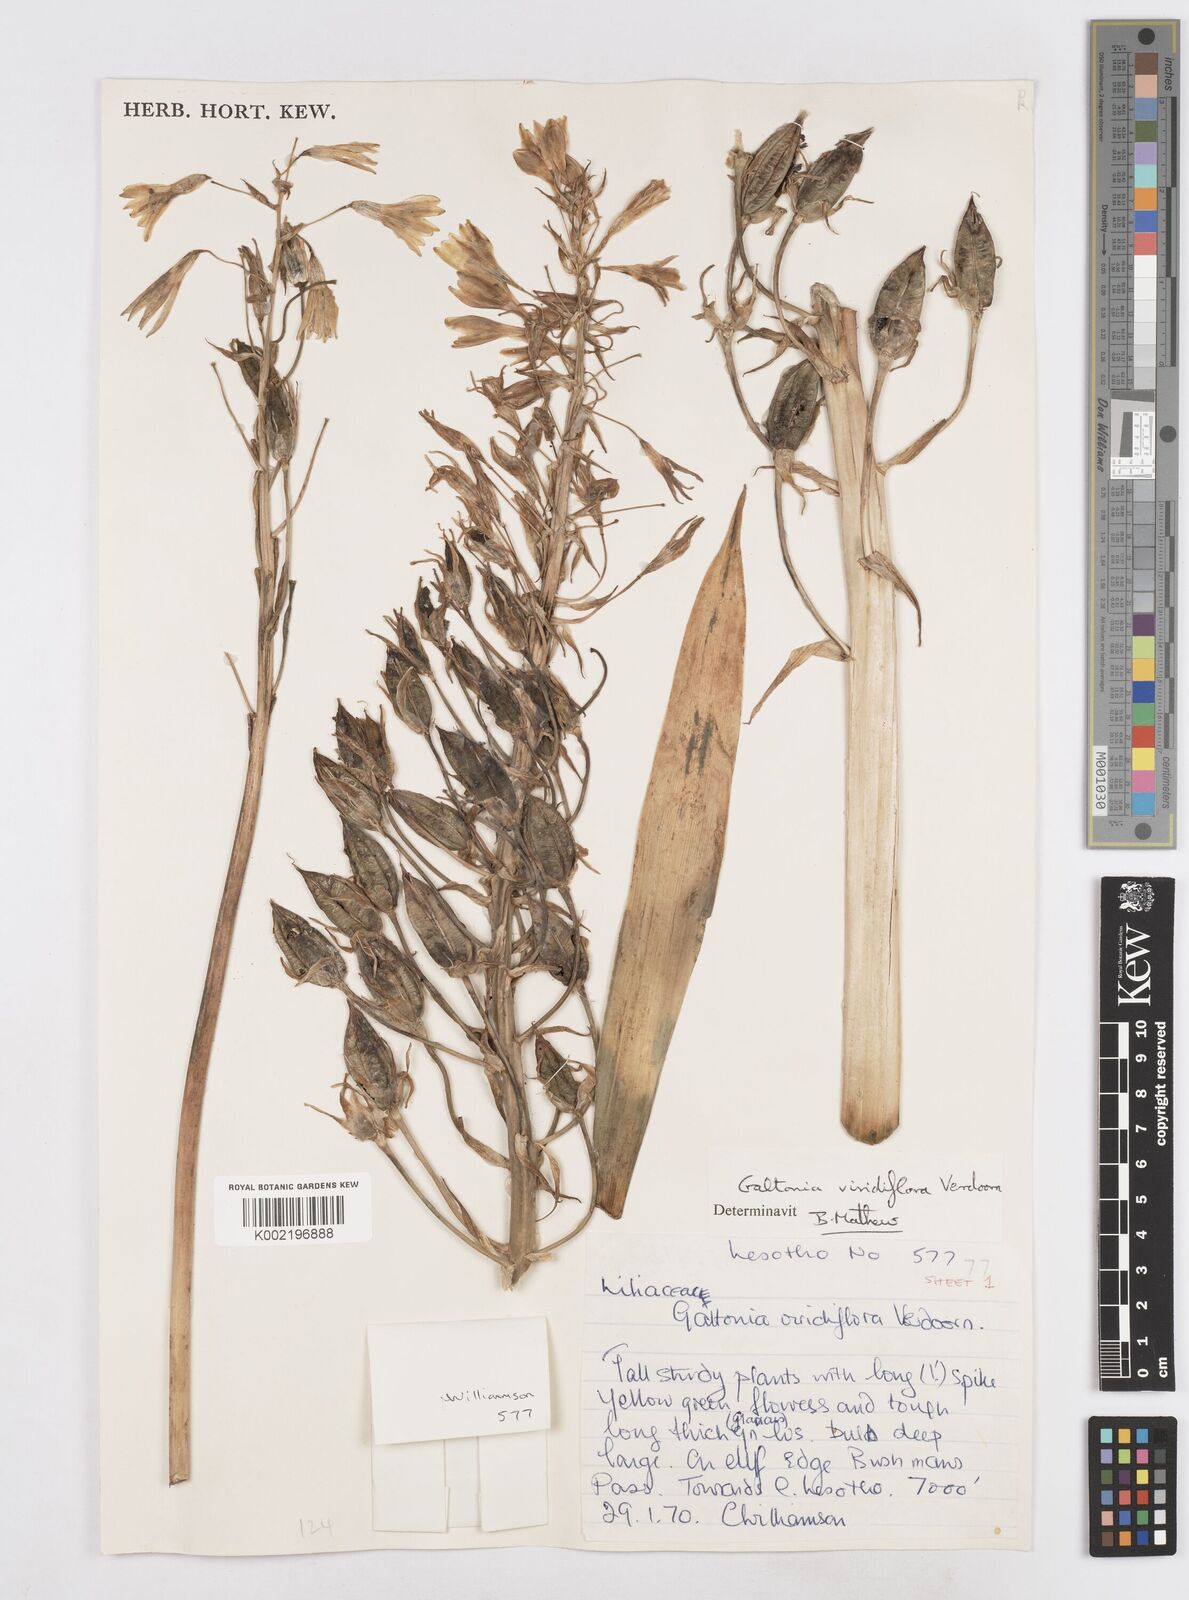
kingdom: Plantae
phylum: Tracheophyta
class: Liliopsida
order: Asparagales
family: Asparagaceae
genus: Ornithogalum
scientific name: Ornithogalum viridiflorum
